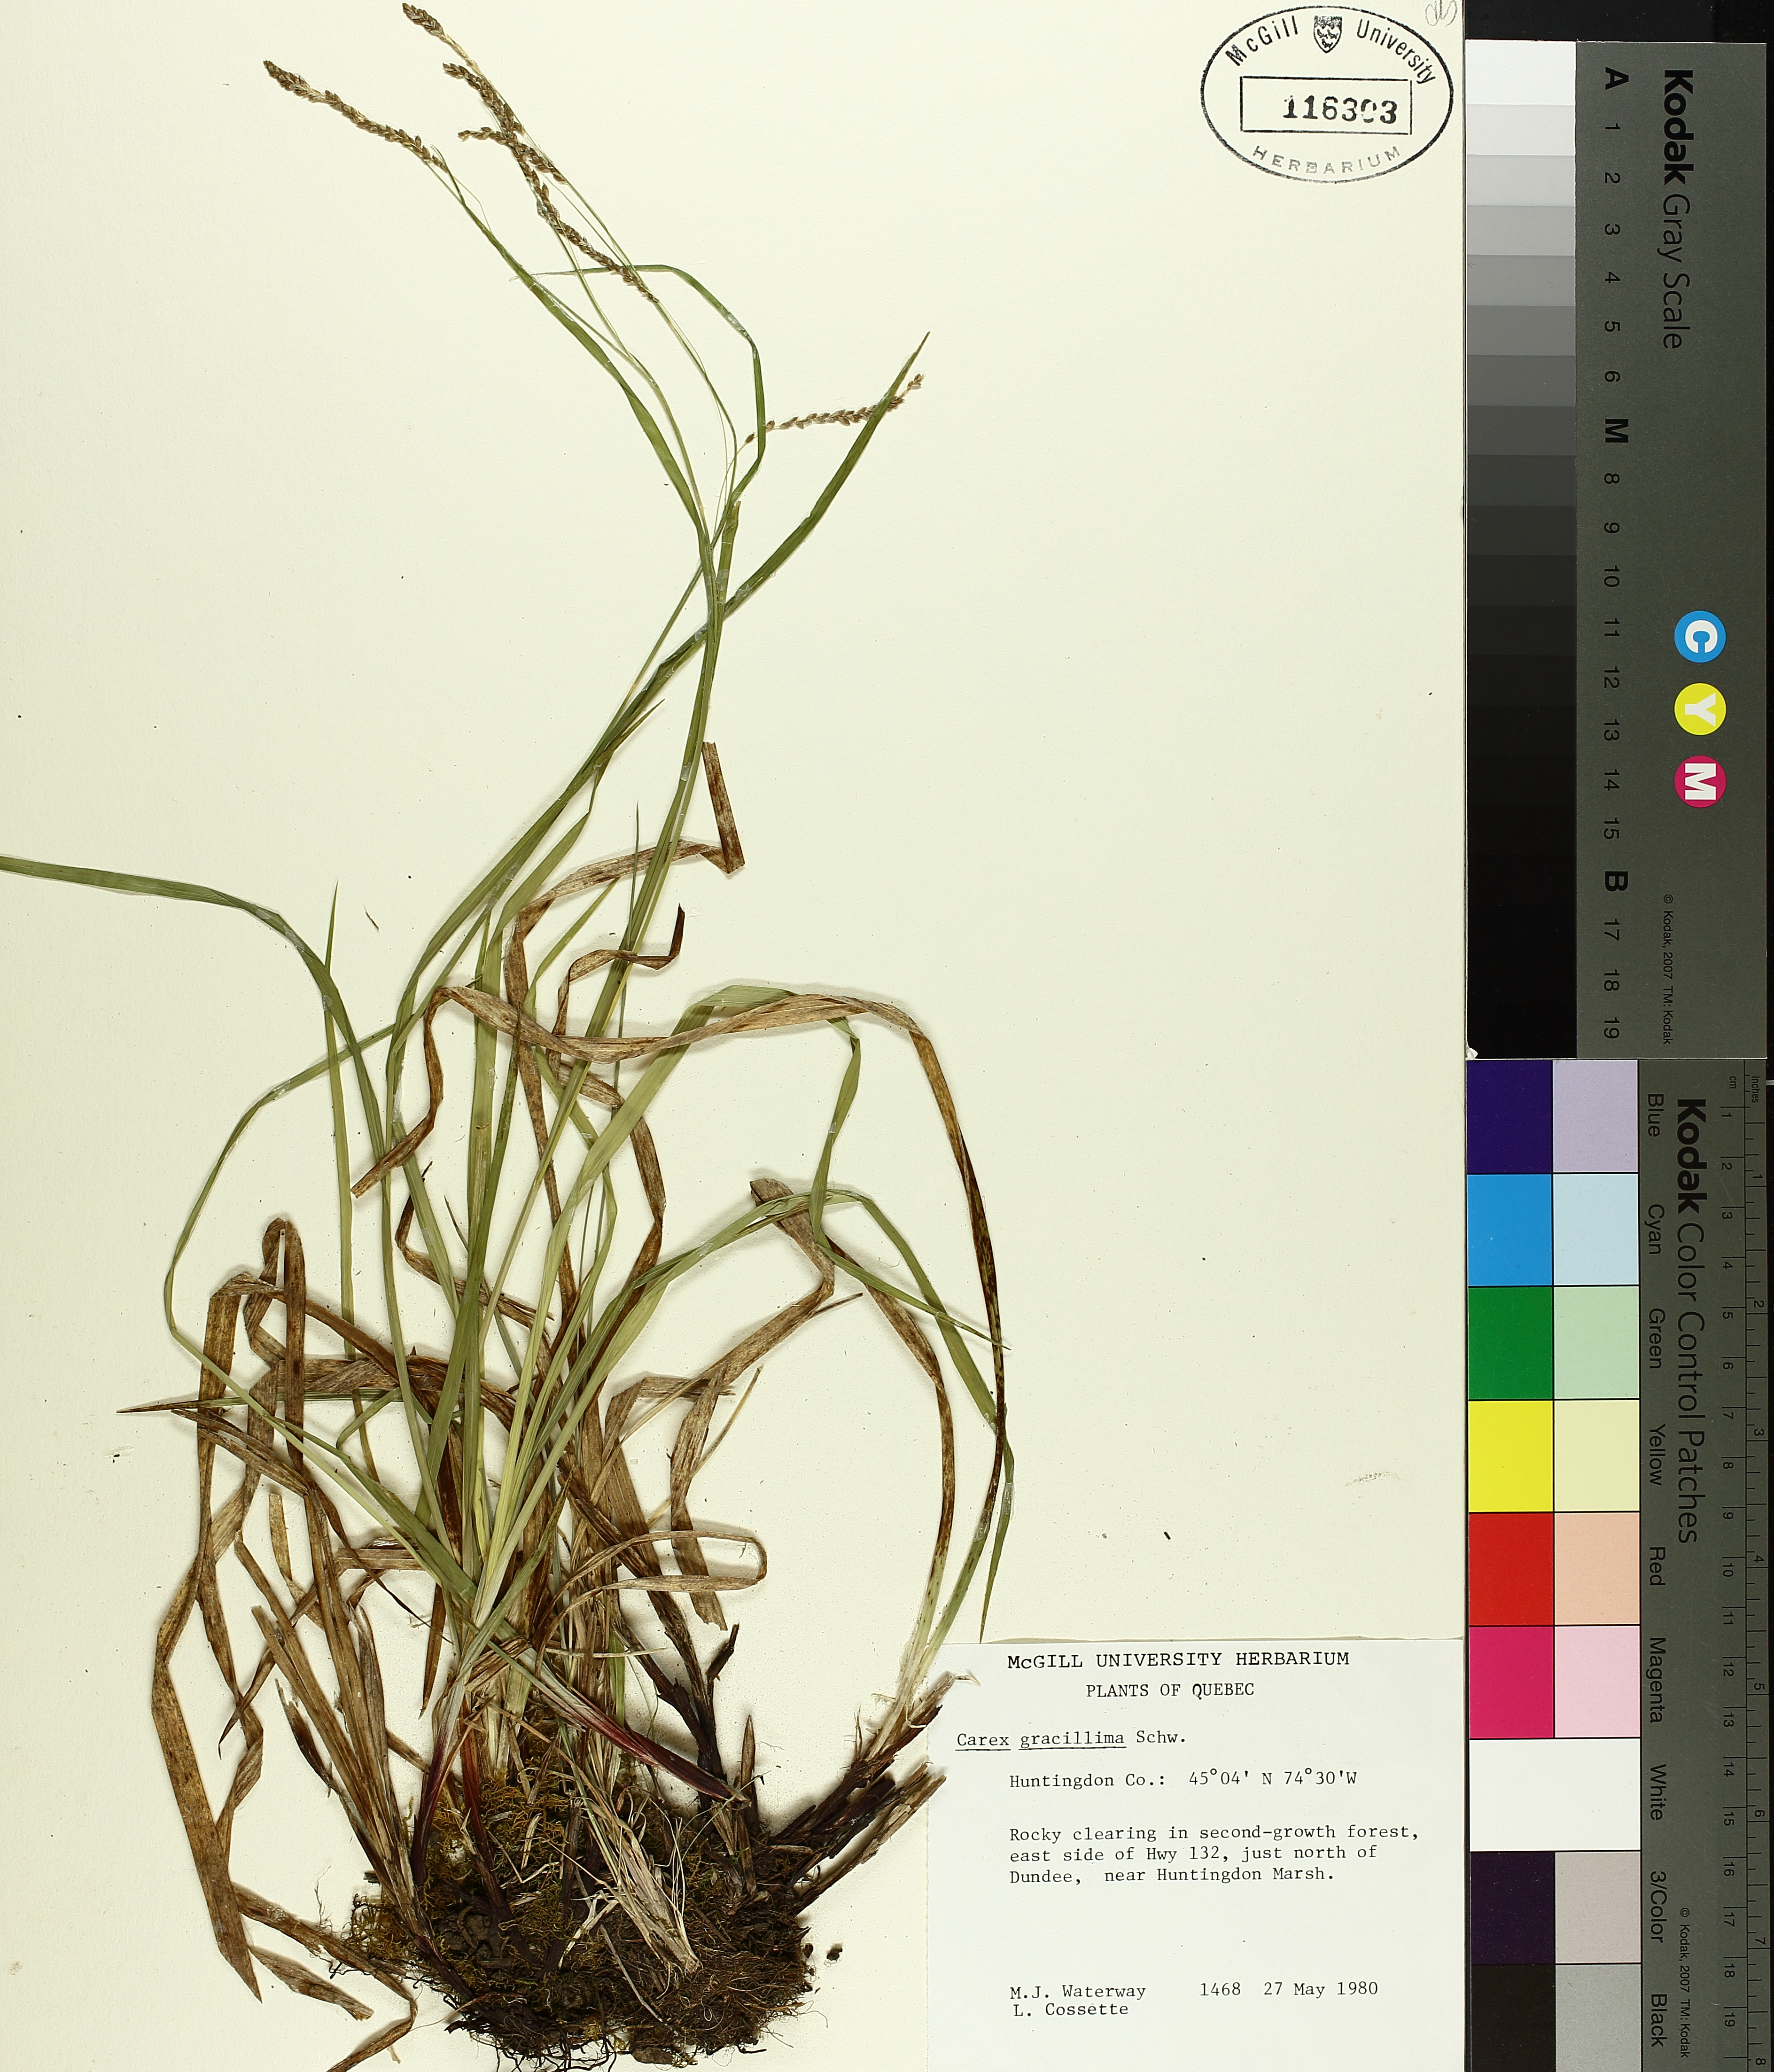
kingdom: Plantae
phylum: Tracheophyta
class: Liliopsida
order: Poales
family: Cyperaceae
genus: Carex
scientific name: Carex gracillima
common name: Graceful sedge
